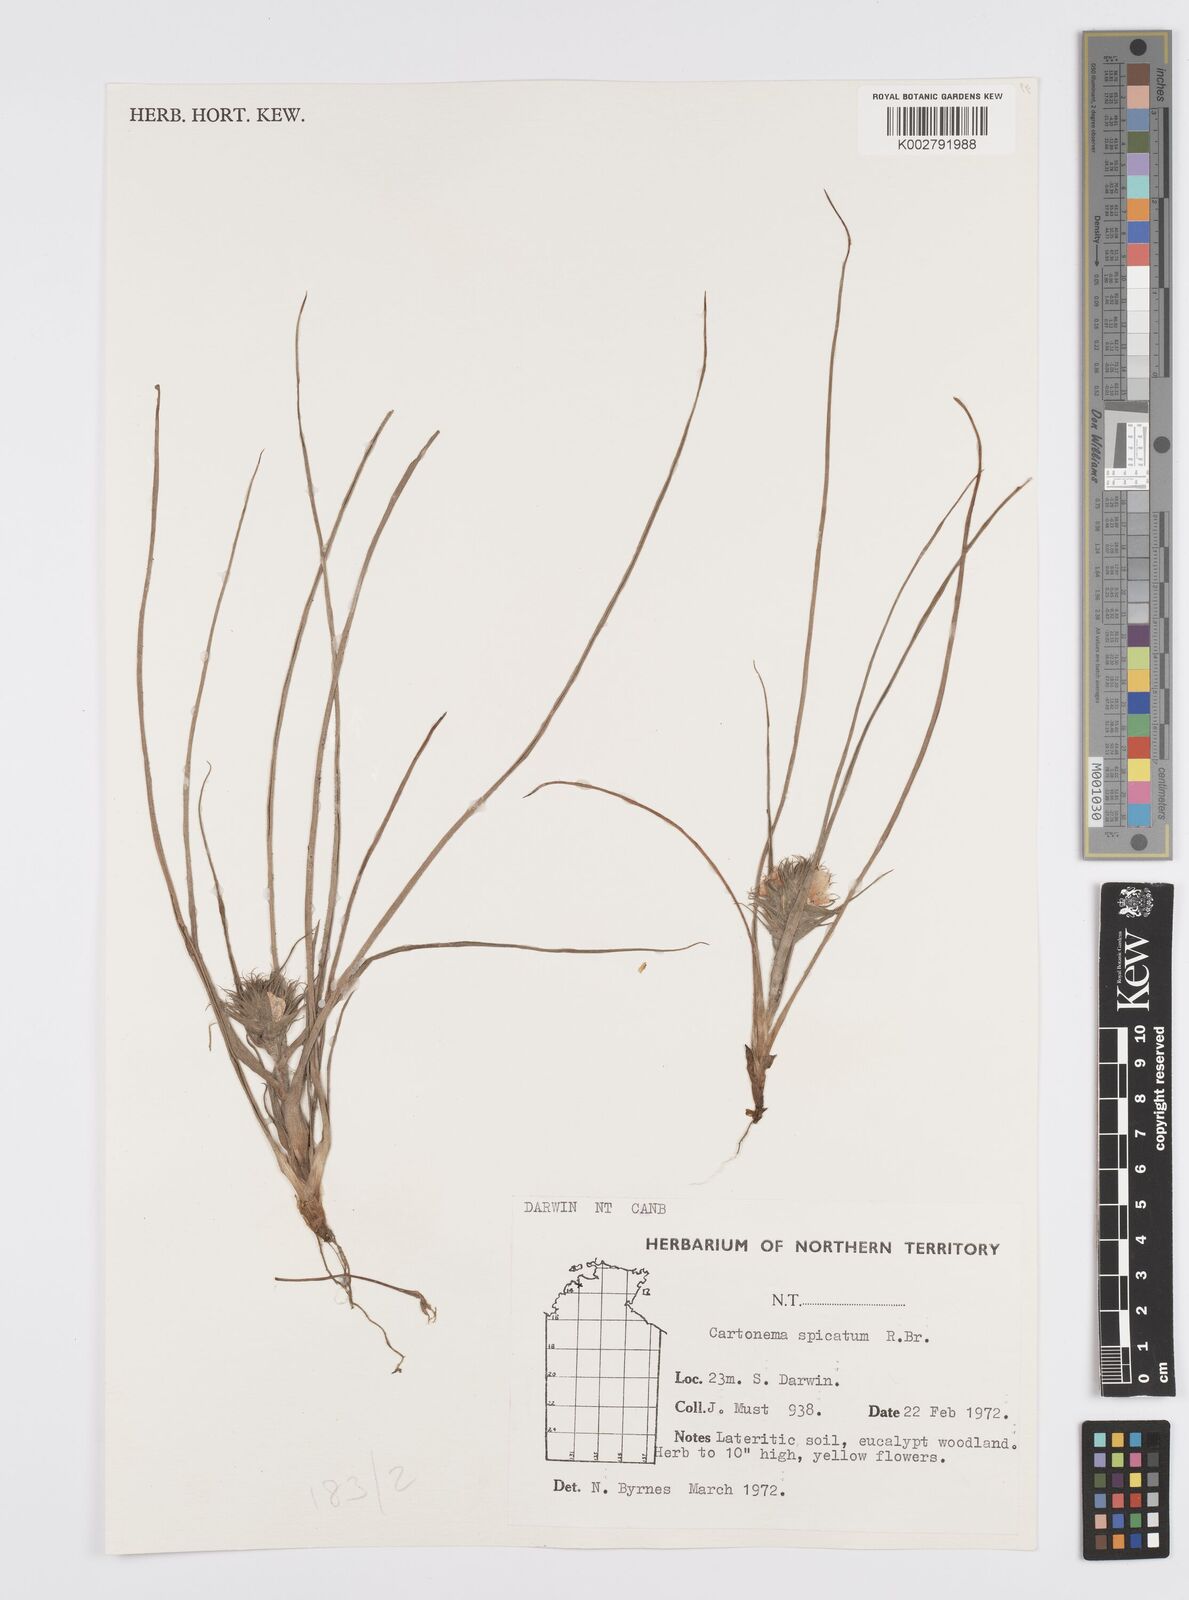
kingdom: Plantae
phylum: Tracheophyta
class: Liliopsida
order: Commelinales
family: Commelinaceae
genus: Cartonema
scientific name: Cartonema spicatum
